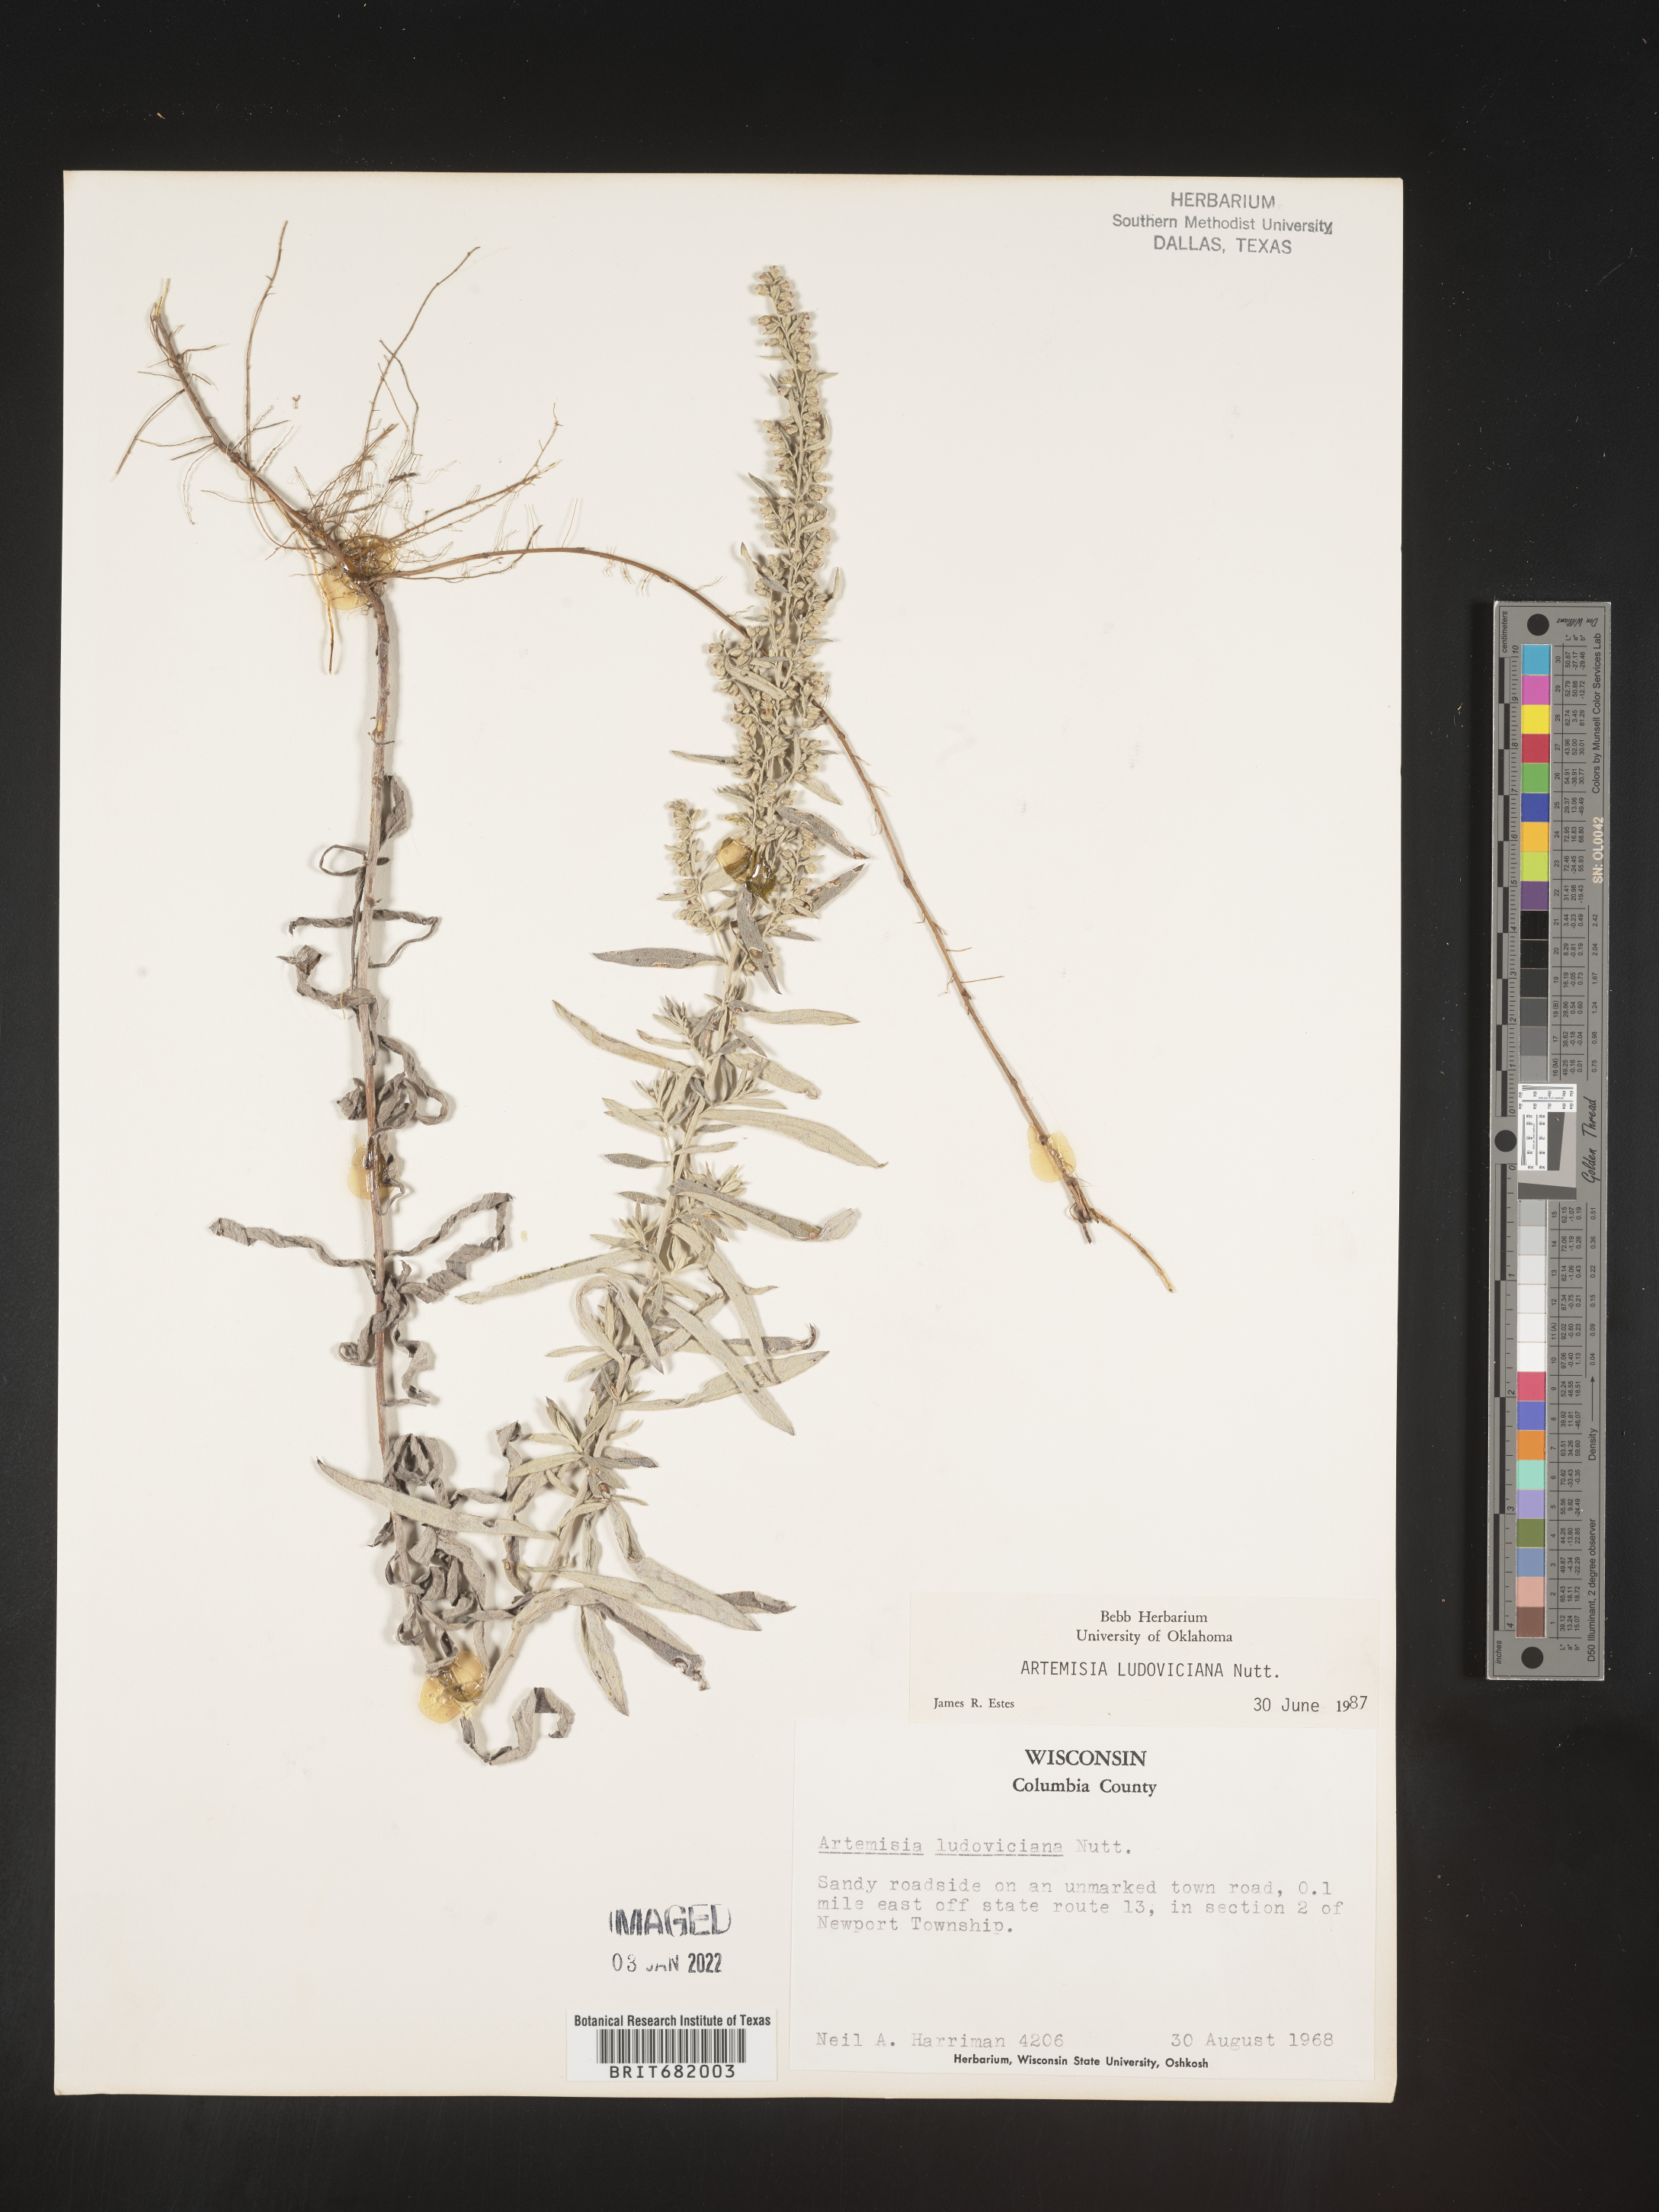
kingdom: Plantae
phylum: Tracheophyta
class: Magnoliopsida
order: Asterales
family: Asteraceae
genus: Artemisia
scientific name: Artemisia ludoviciana
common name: Western mugwort
